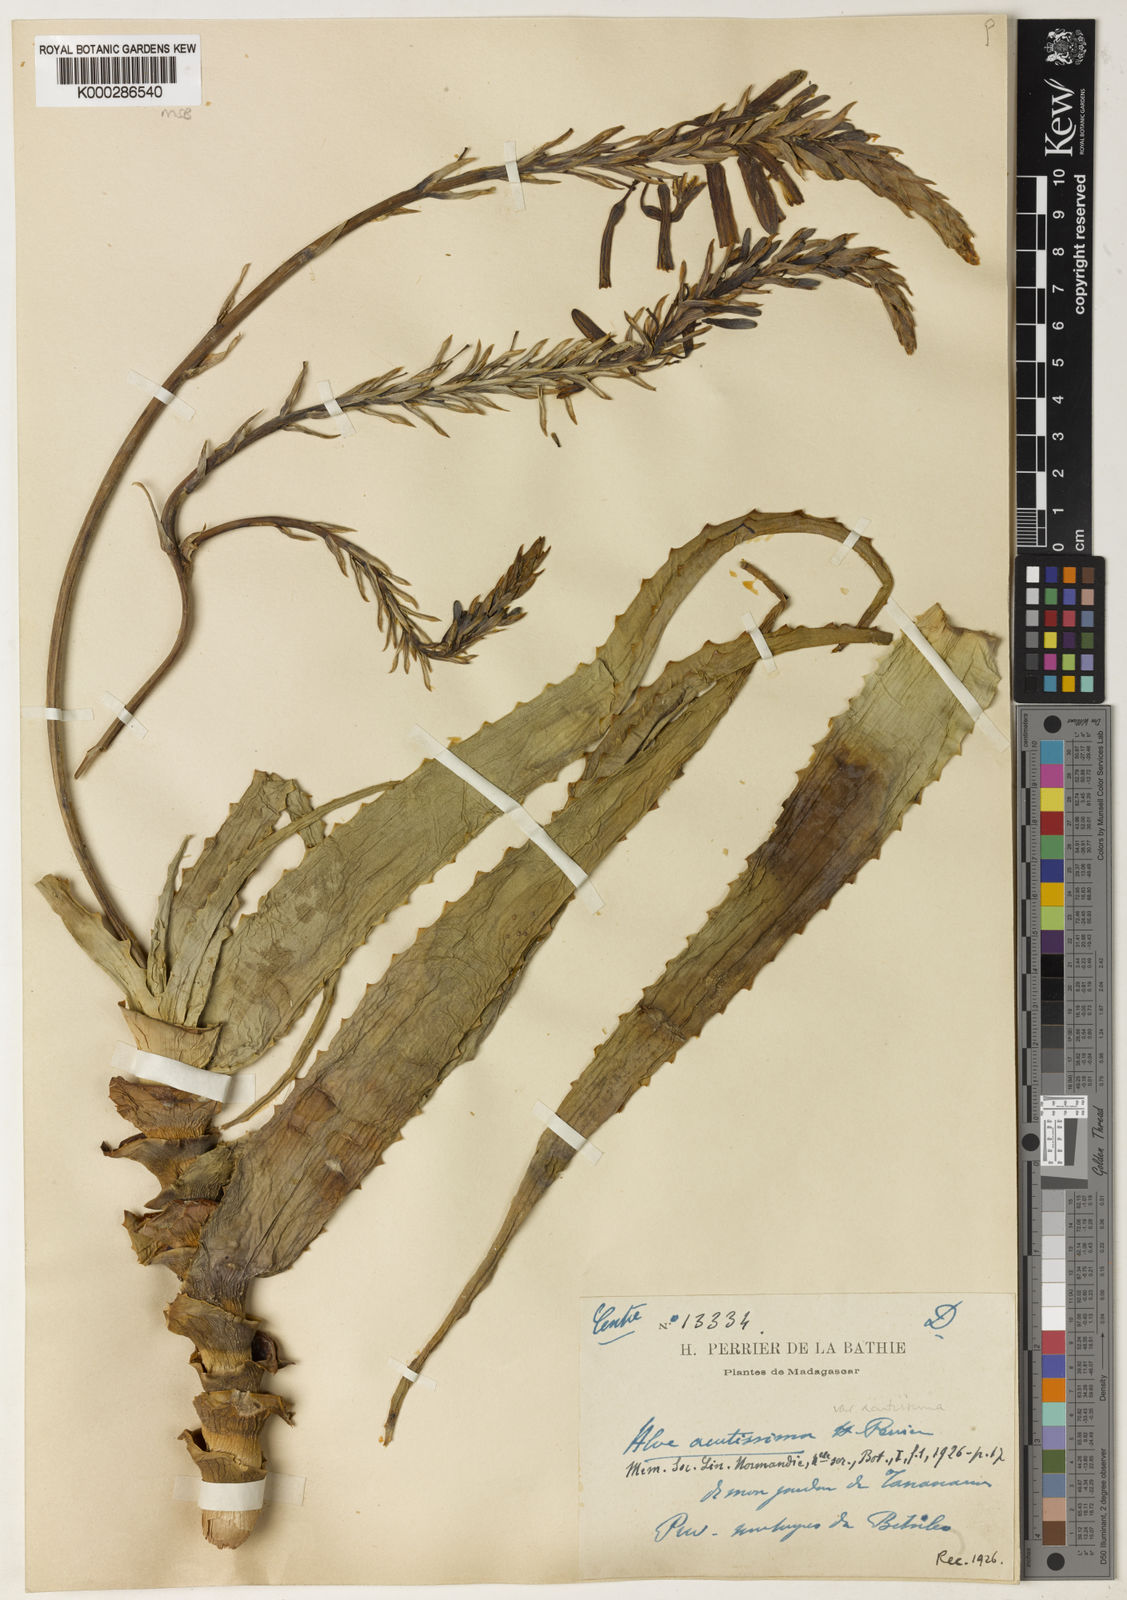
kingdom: Plantae
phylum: Tracheophyta
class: Liliopsida
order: Asparagales
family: Asphodelaceae
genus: Aloe
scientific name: Aloe
